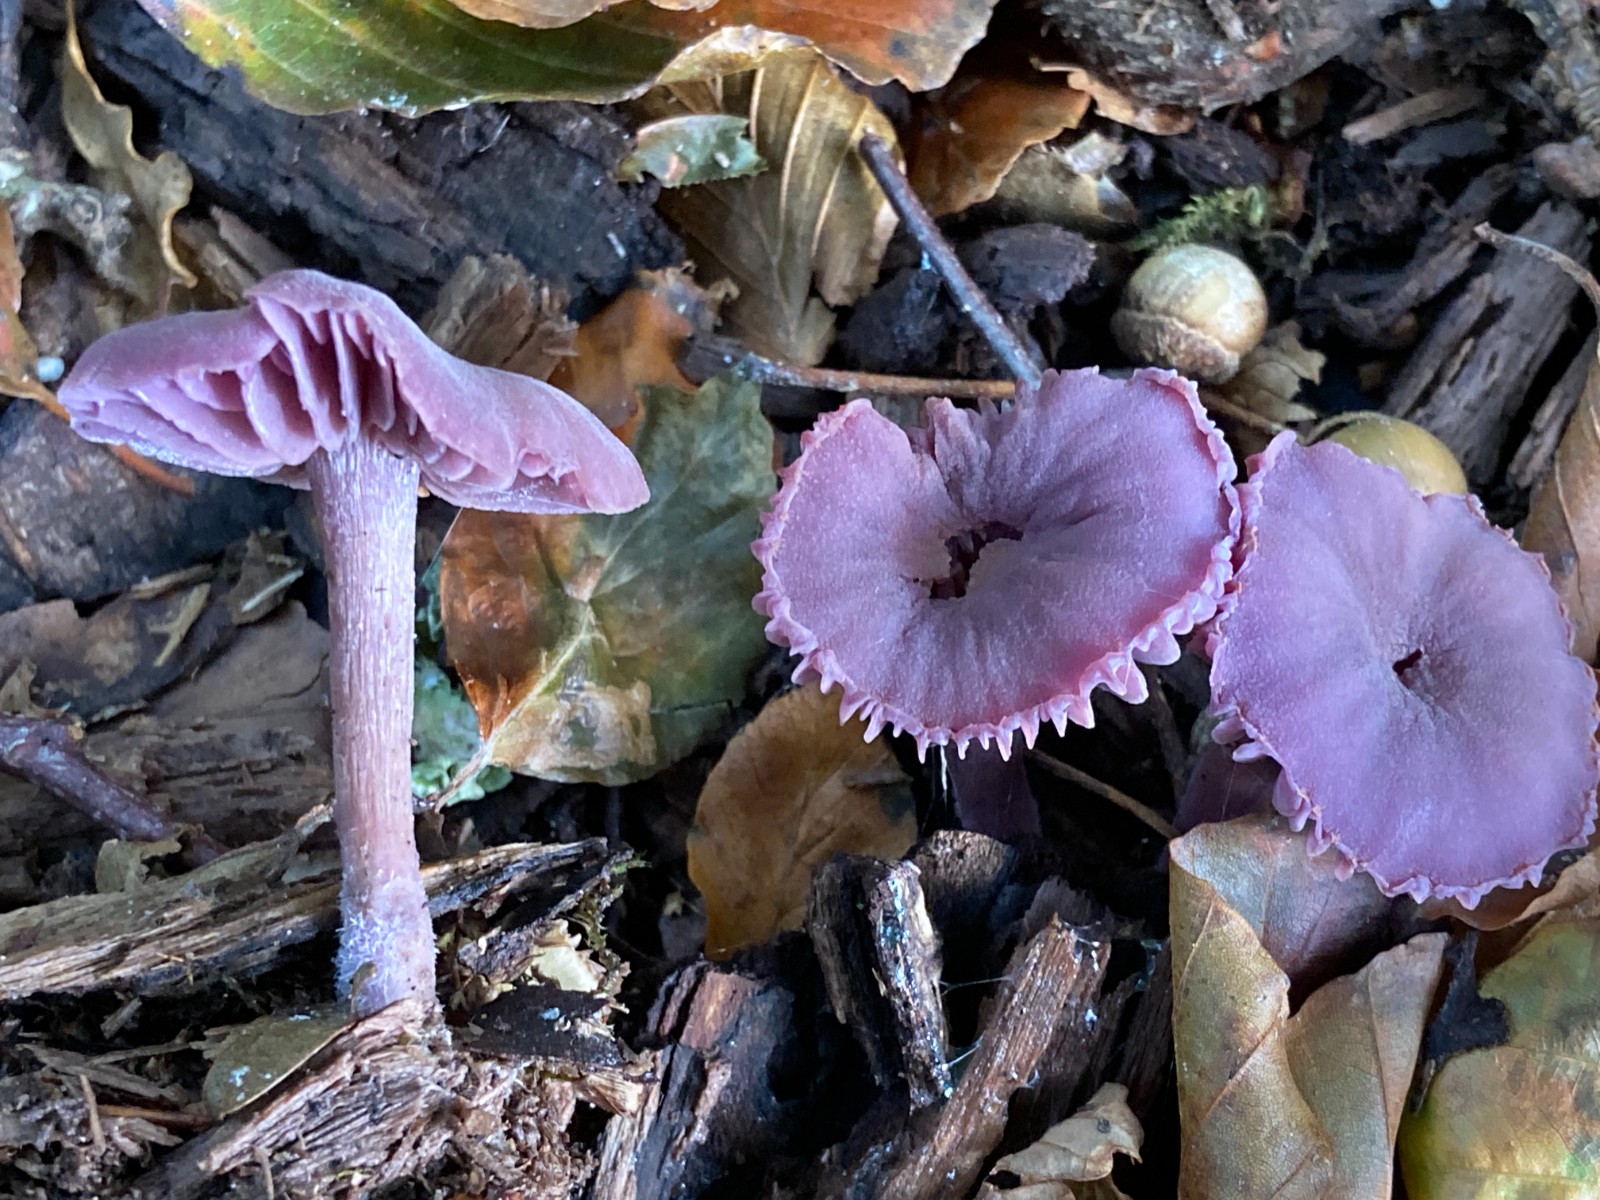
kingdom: Fungi
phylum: Basidiomycota
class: Agaricomycetes
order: Agaricales
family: Hydnangiaceae
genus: Laccaria
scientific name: Laccaria amethystina
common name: violet ametysthat
